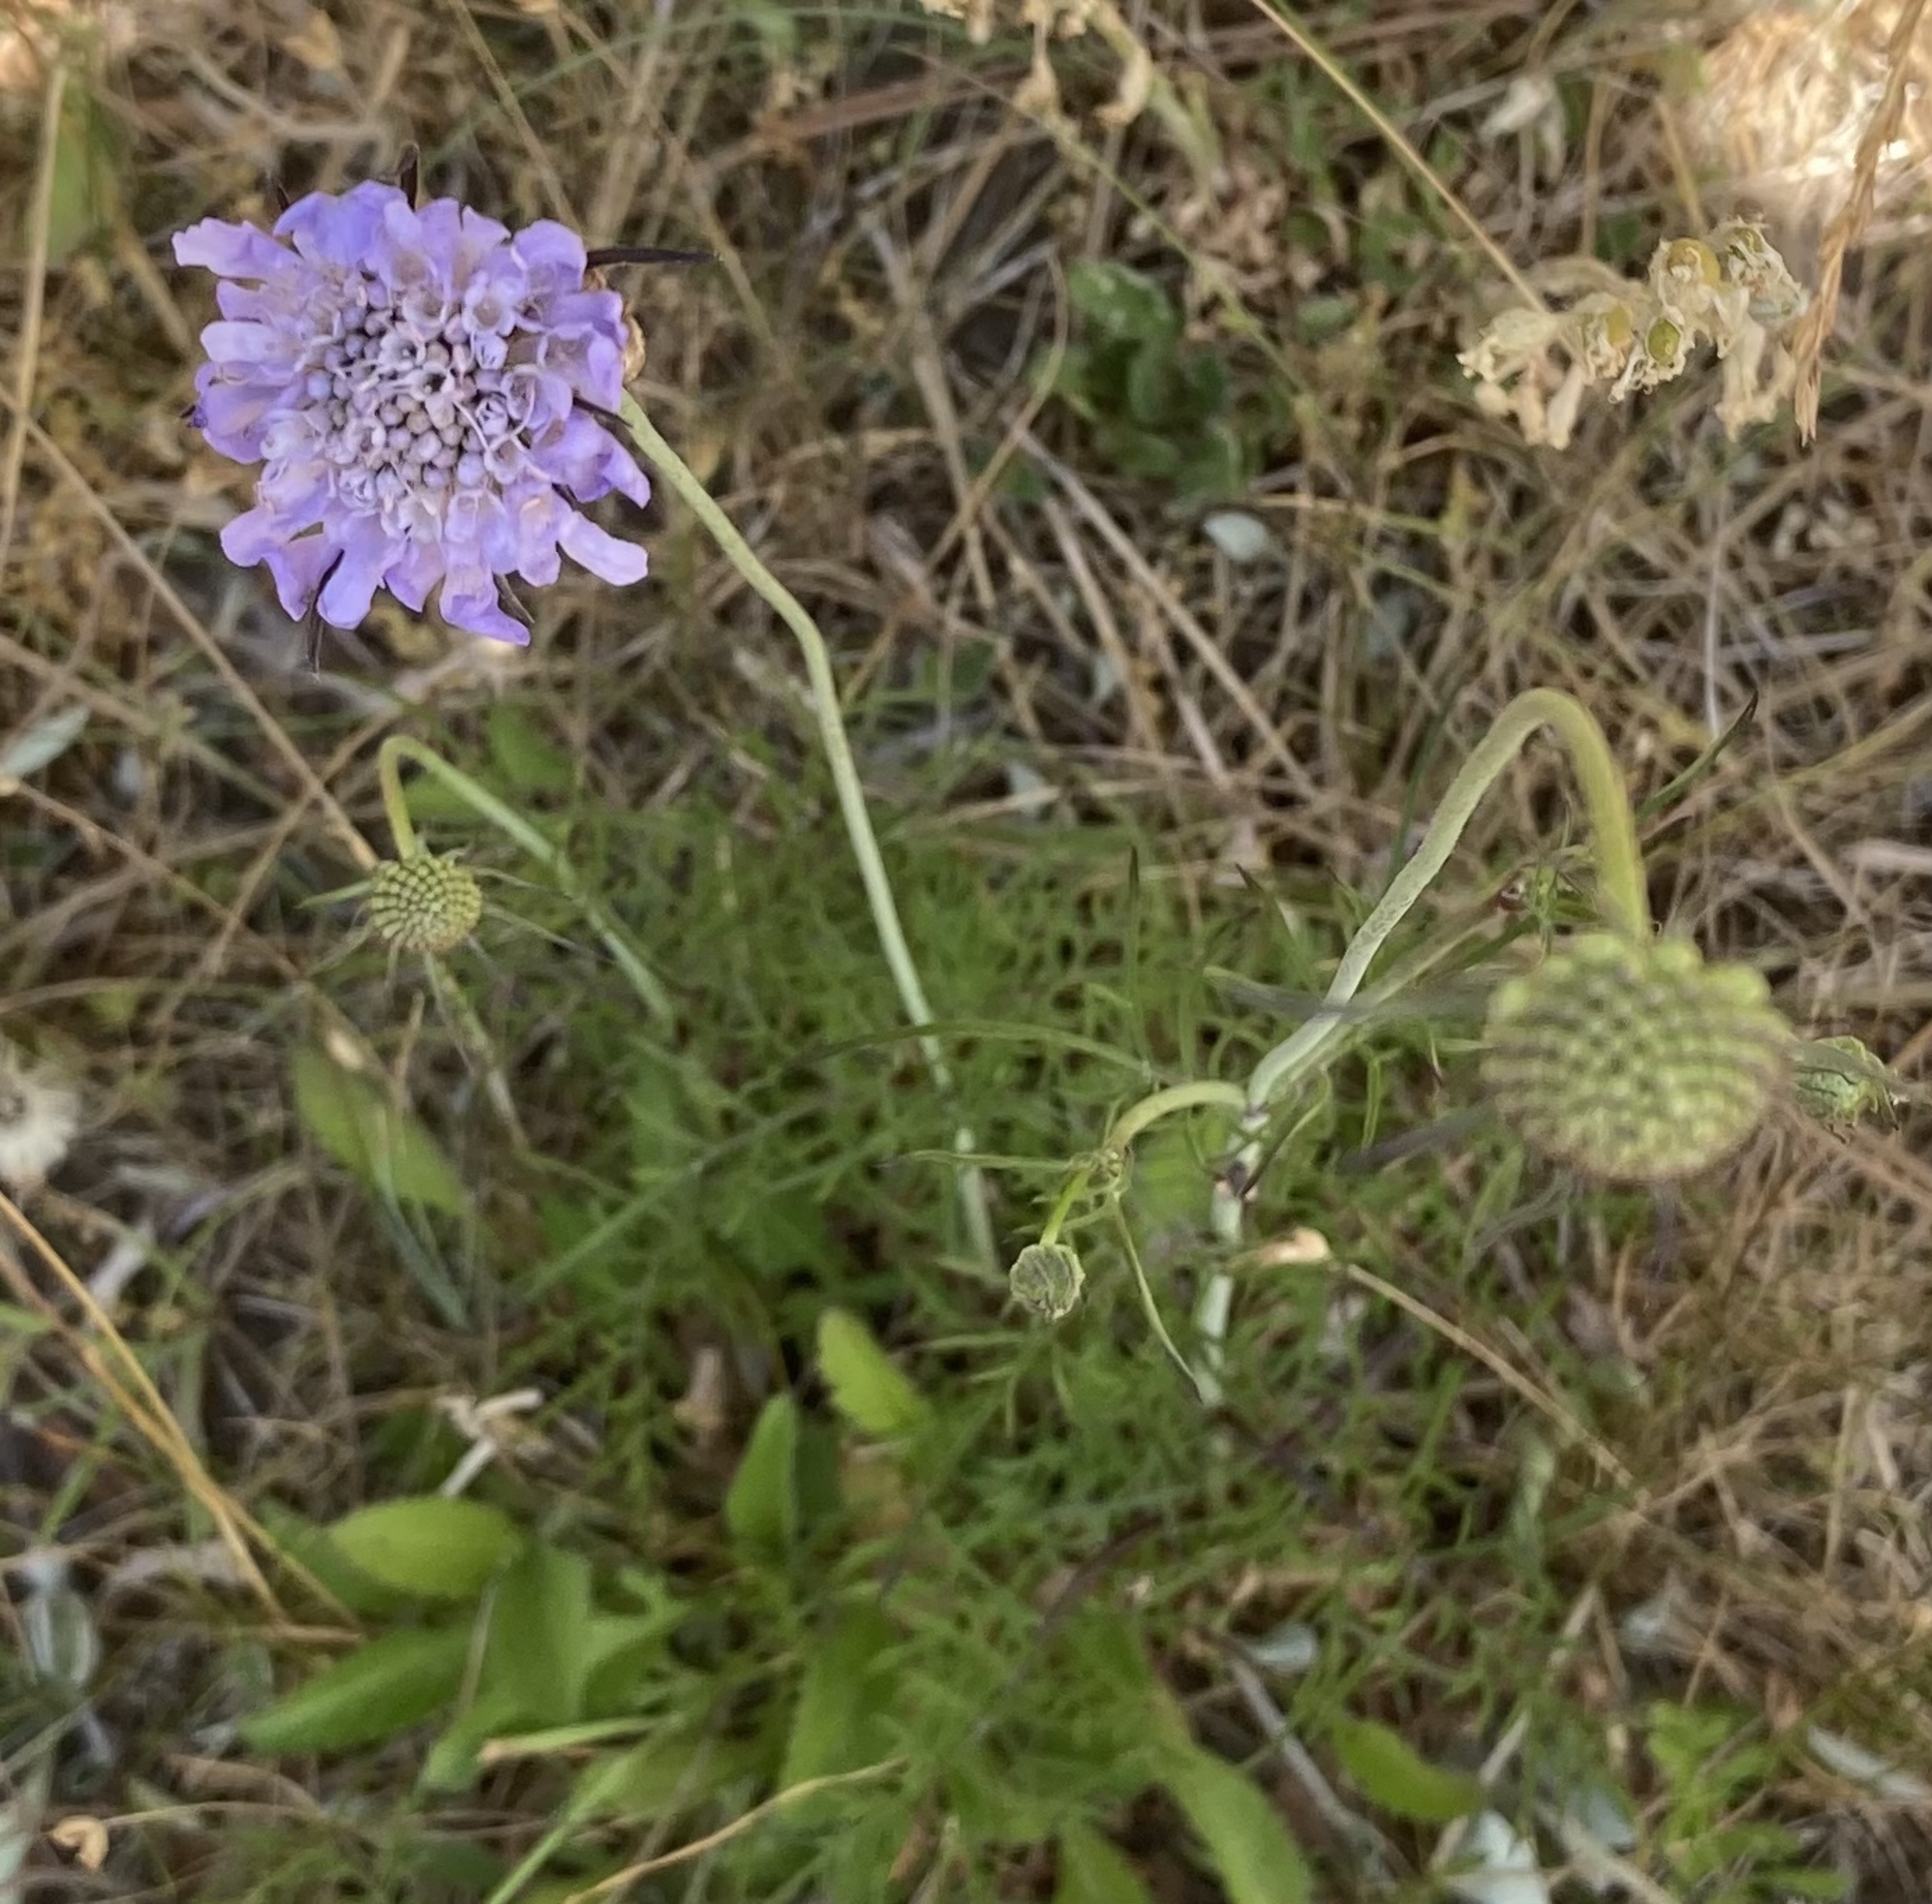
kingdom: Plantae
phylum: Tracheophyta
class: Magnoliopsida
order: Dipsacales
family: Caprifoliaceae
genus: Scabiosa
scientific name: Scabiosa columbaria
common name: Due-skabiose
